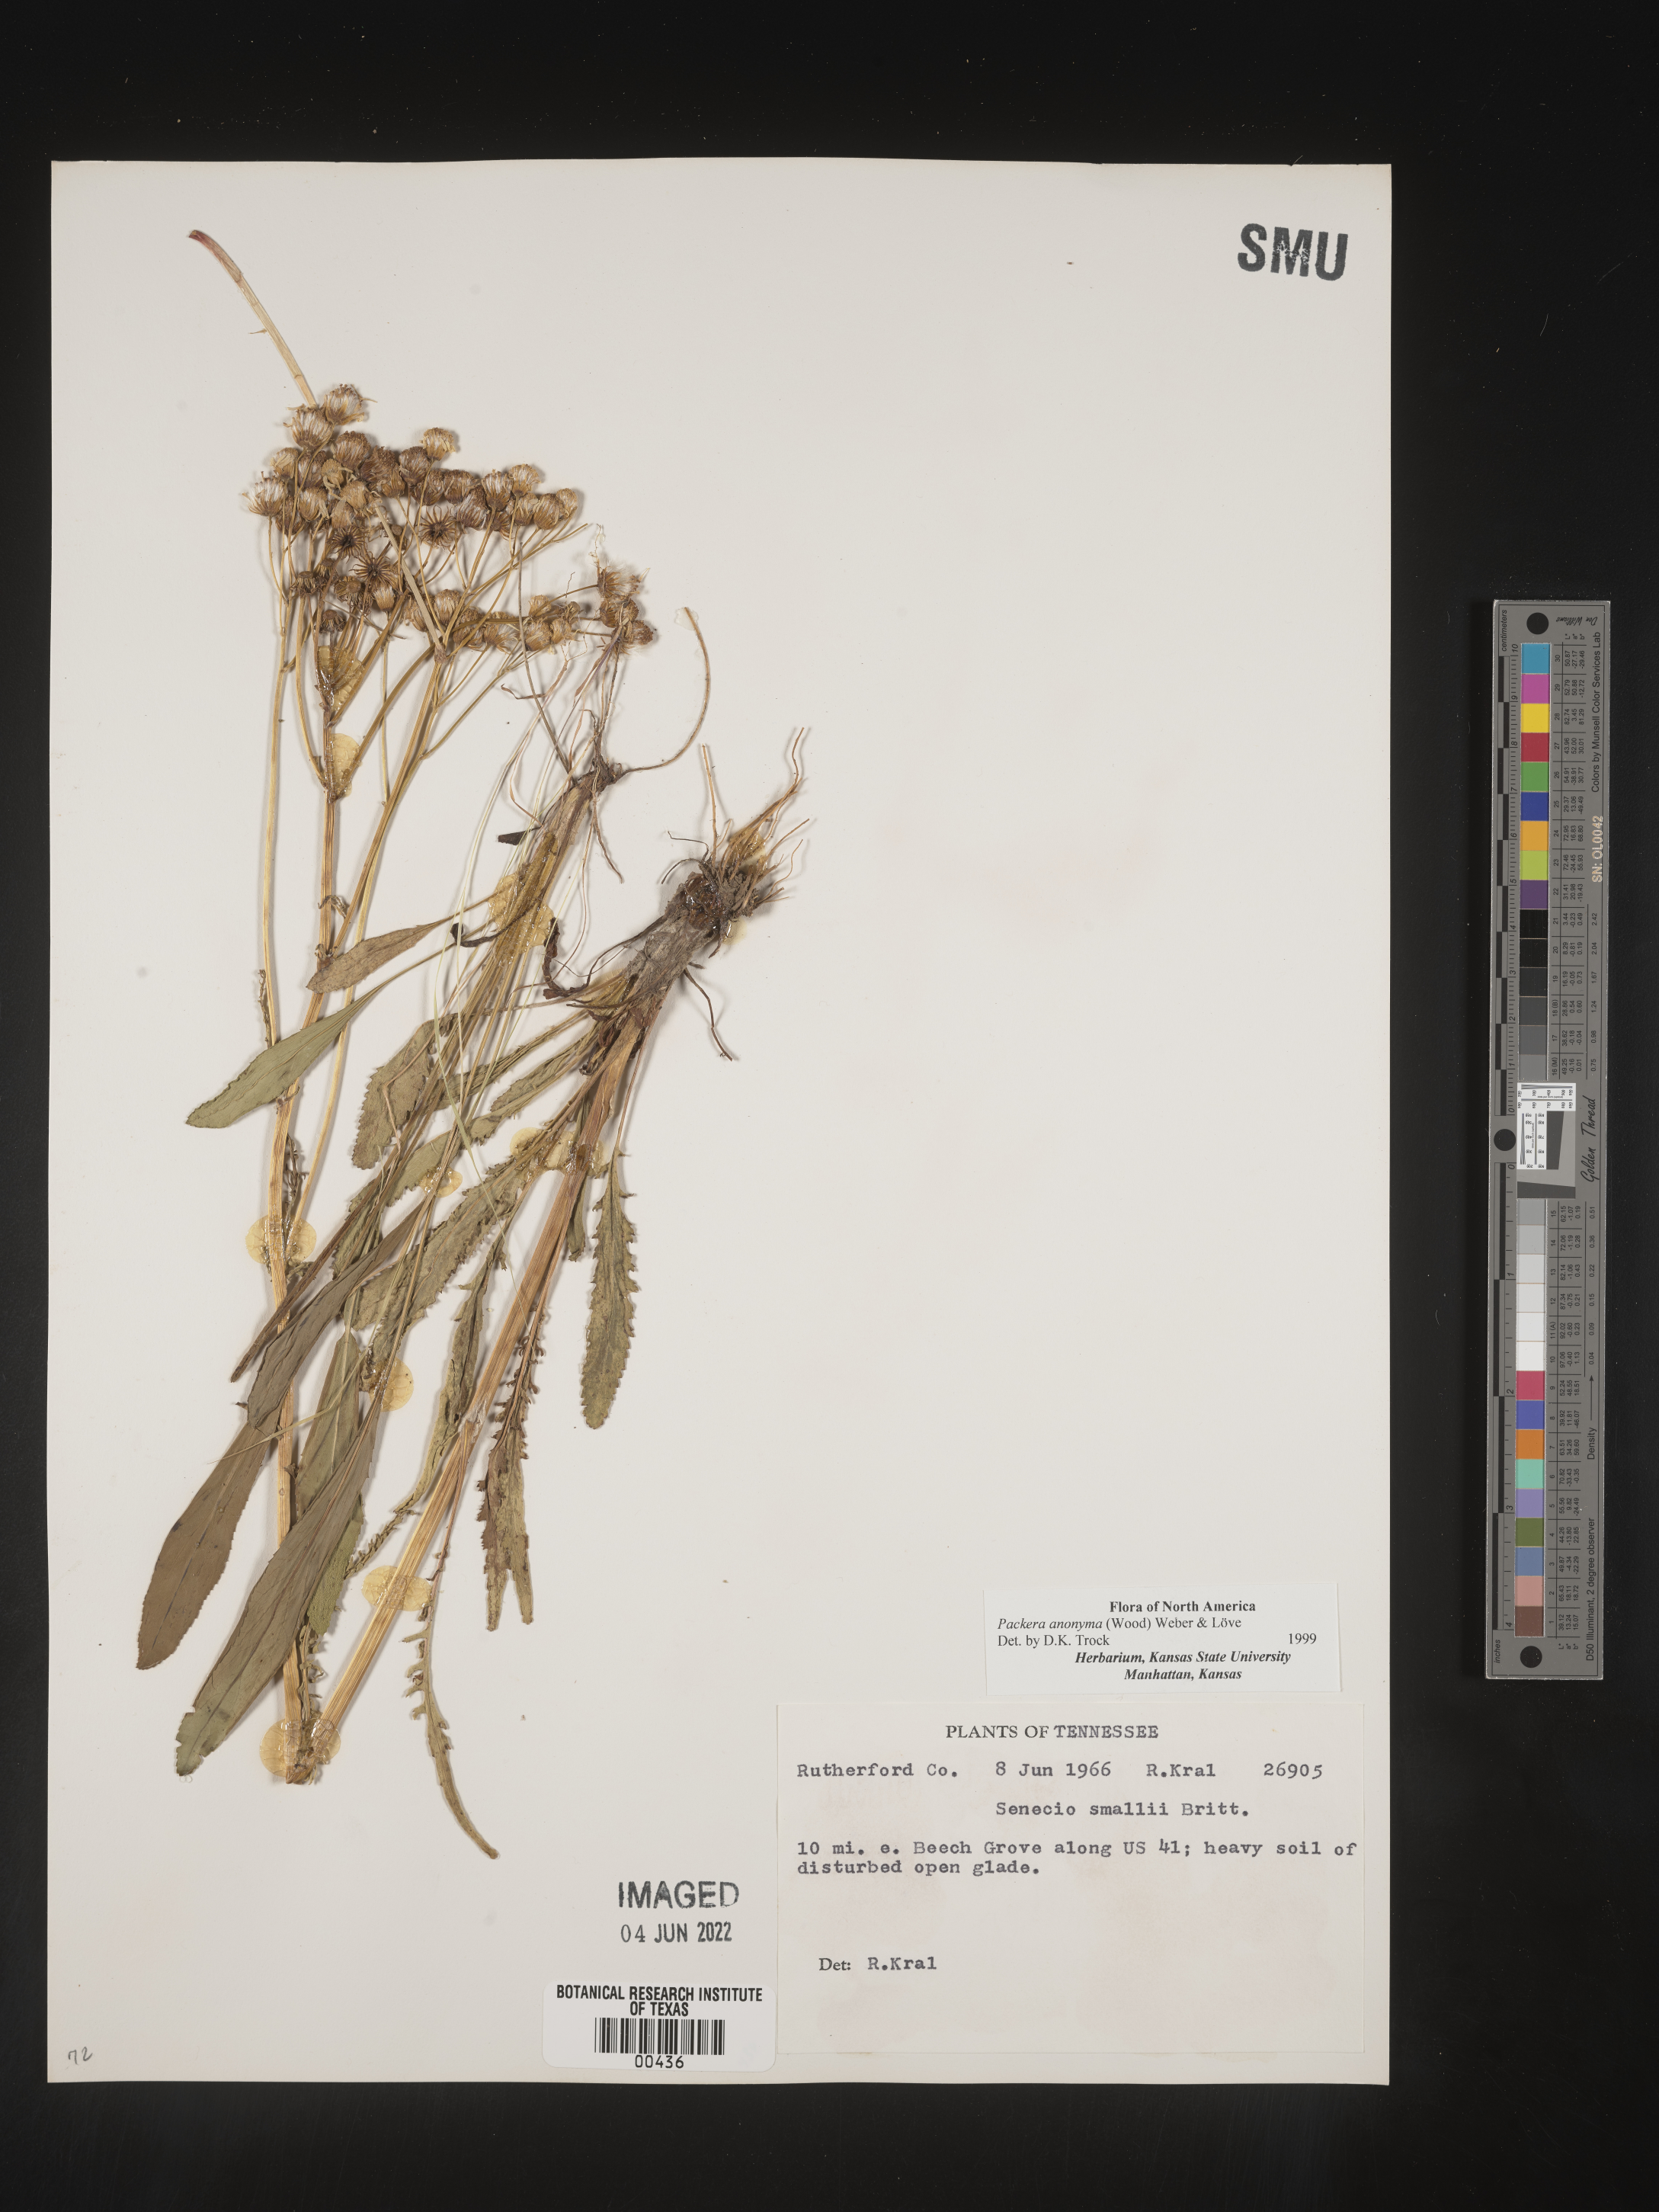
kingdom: Plantae
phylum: Tracheophyta
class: Magnoliopsida
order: Asterales
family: Asteraceae
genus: Packera
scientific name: Packera anonyma
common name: Small ragwort
